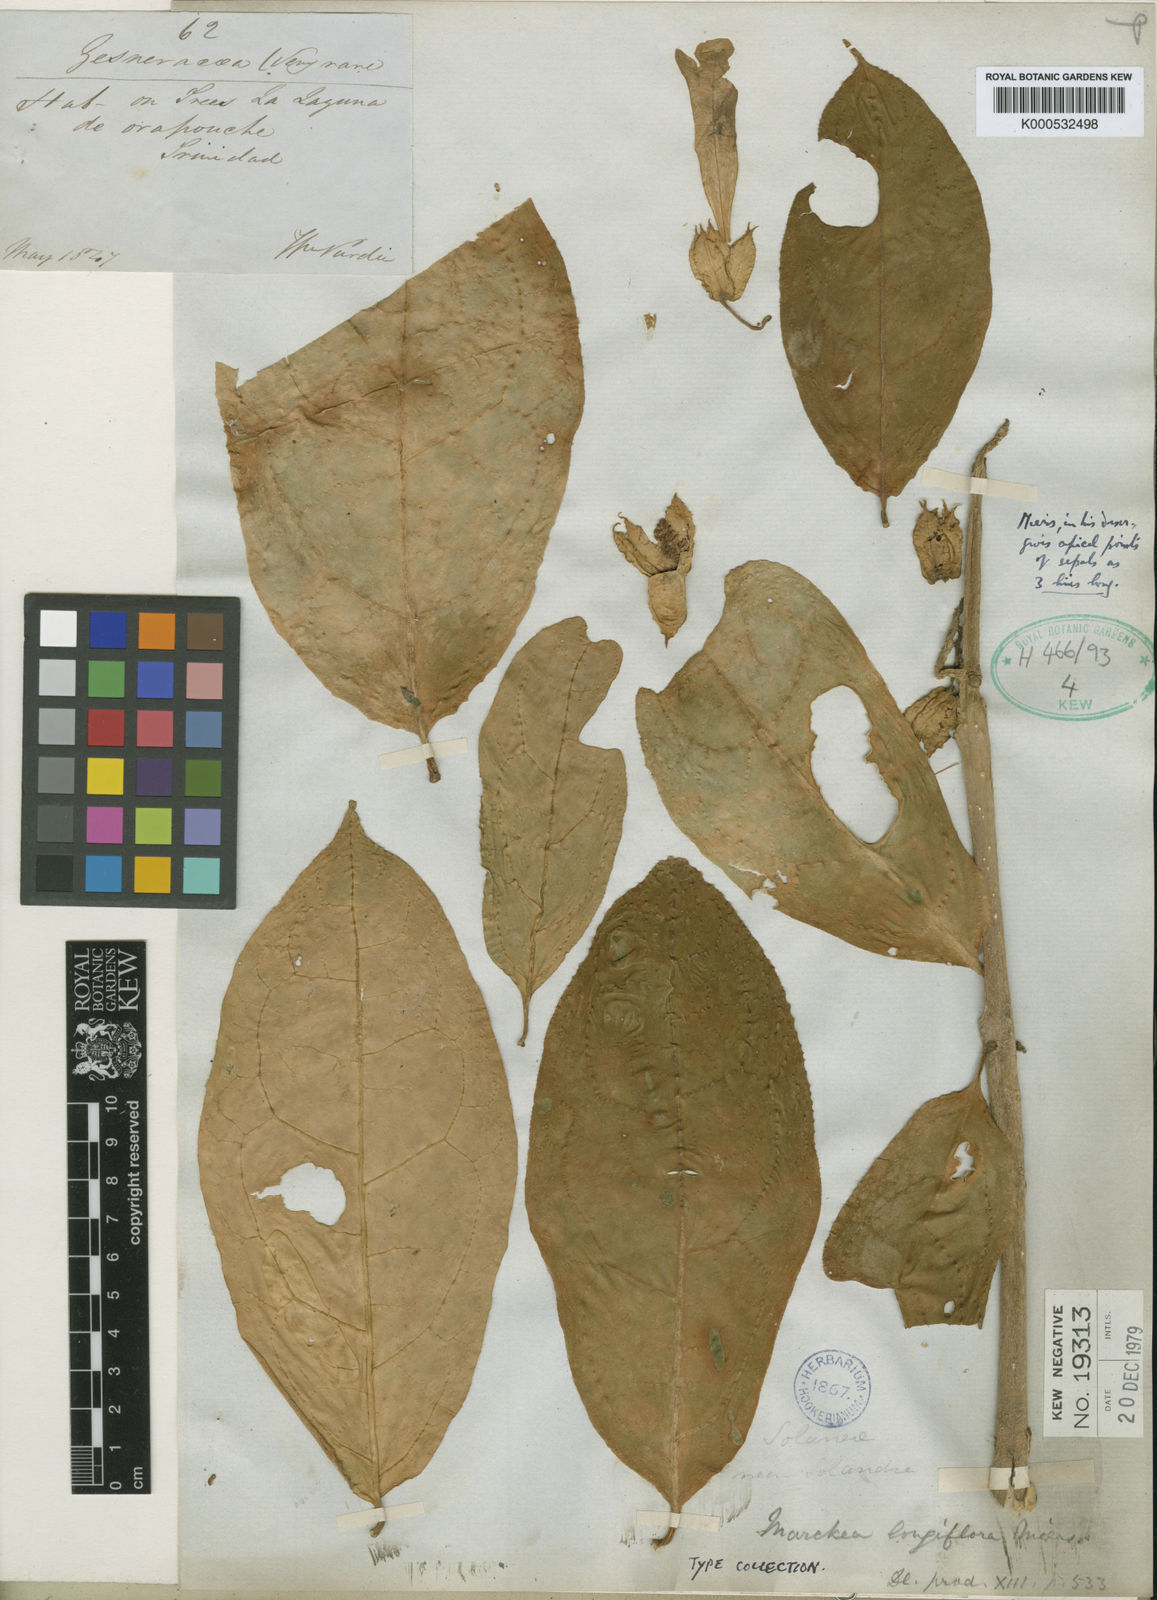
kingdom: Plantae
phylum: Tracheophyta
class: Magnoliopsida
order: Solanales
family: Solanaceae
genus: Solanum
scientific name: Solanum subinerme
